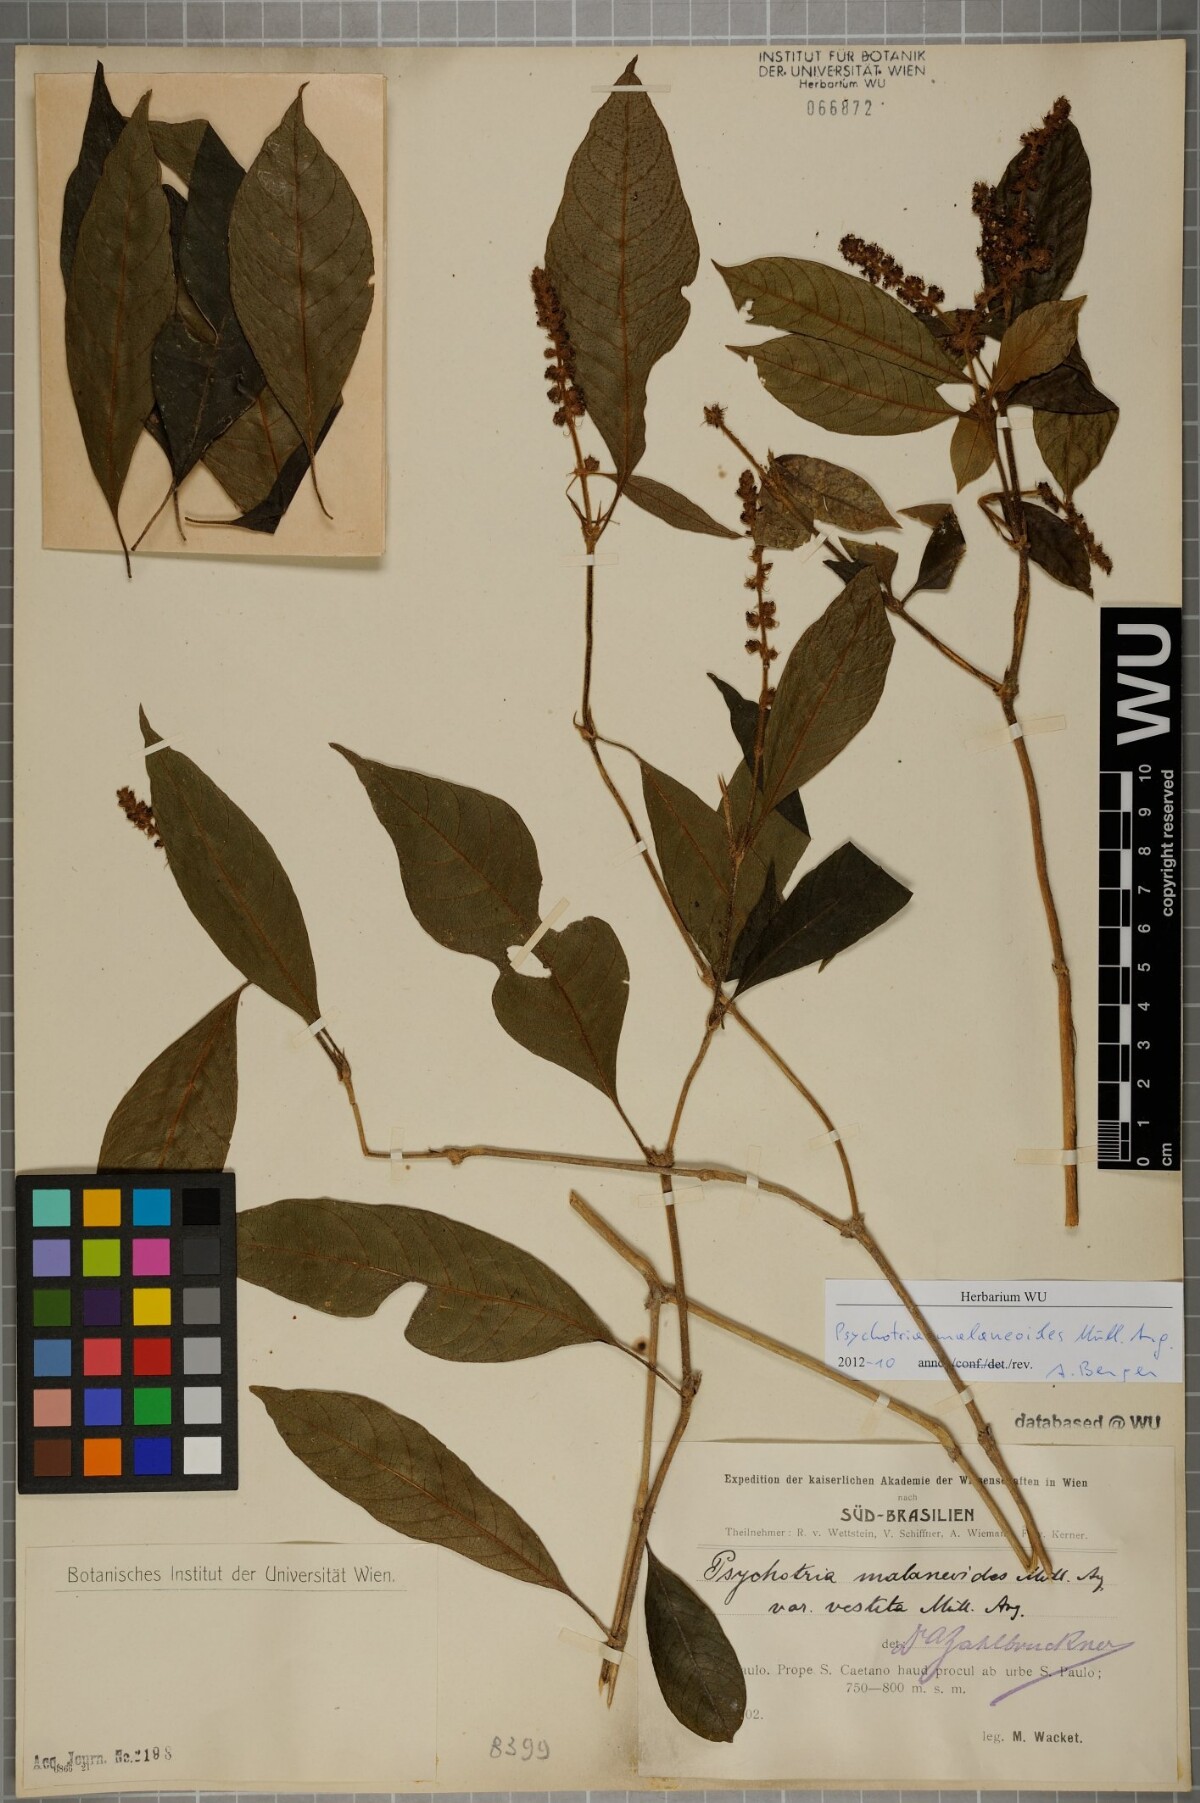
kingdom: Plantae
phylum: Tracheophyta
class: Magnoliopsida
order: Gentianales
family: Rubiaceae
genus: Palicourea
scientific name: Palicourea malaneoides
